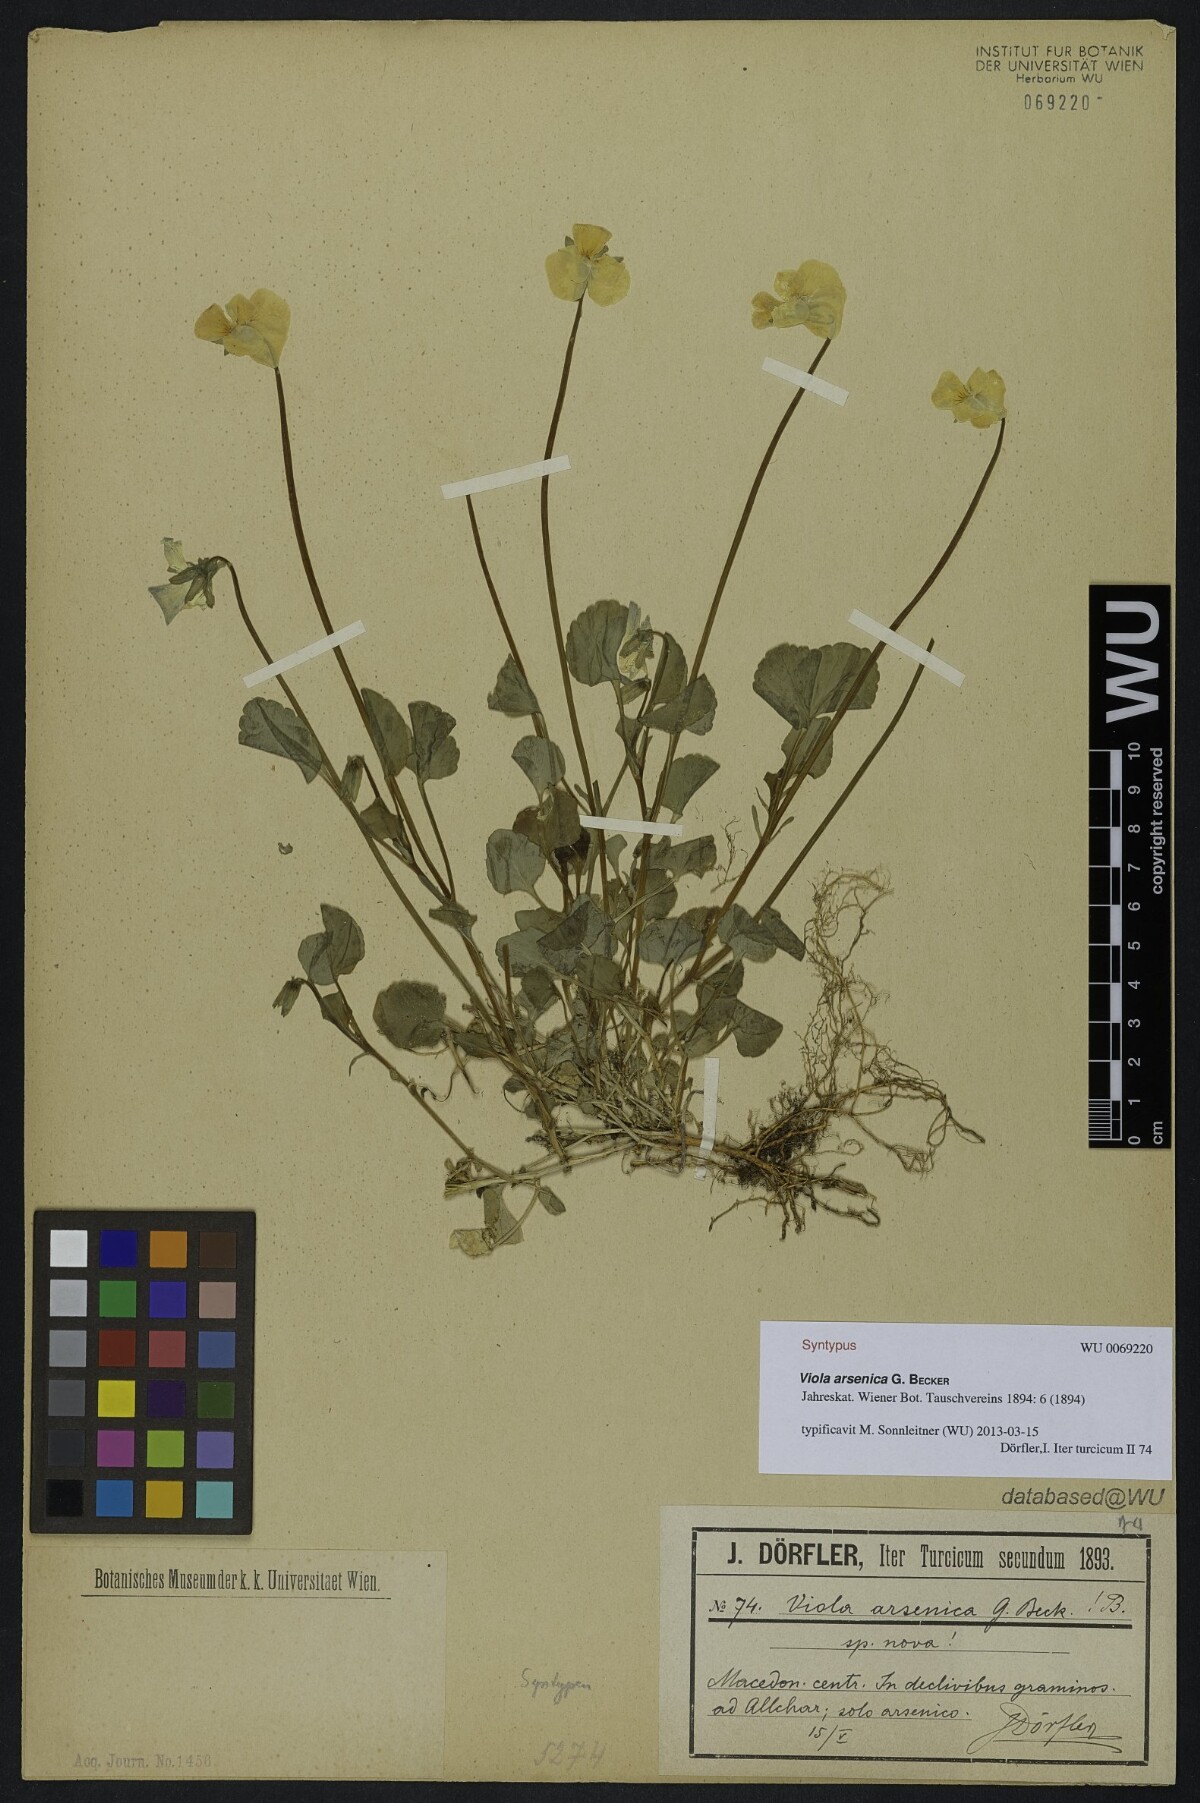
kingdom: Plantae
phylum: Tracheophyta
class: Magnoliopsida
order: Malpighiales
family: Violaceae
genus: Viola
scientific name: Viola arsenica
